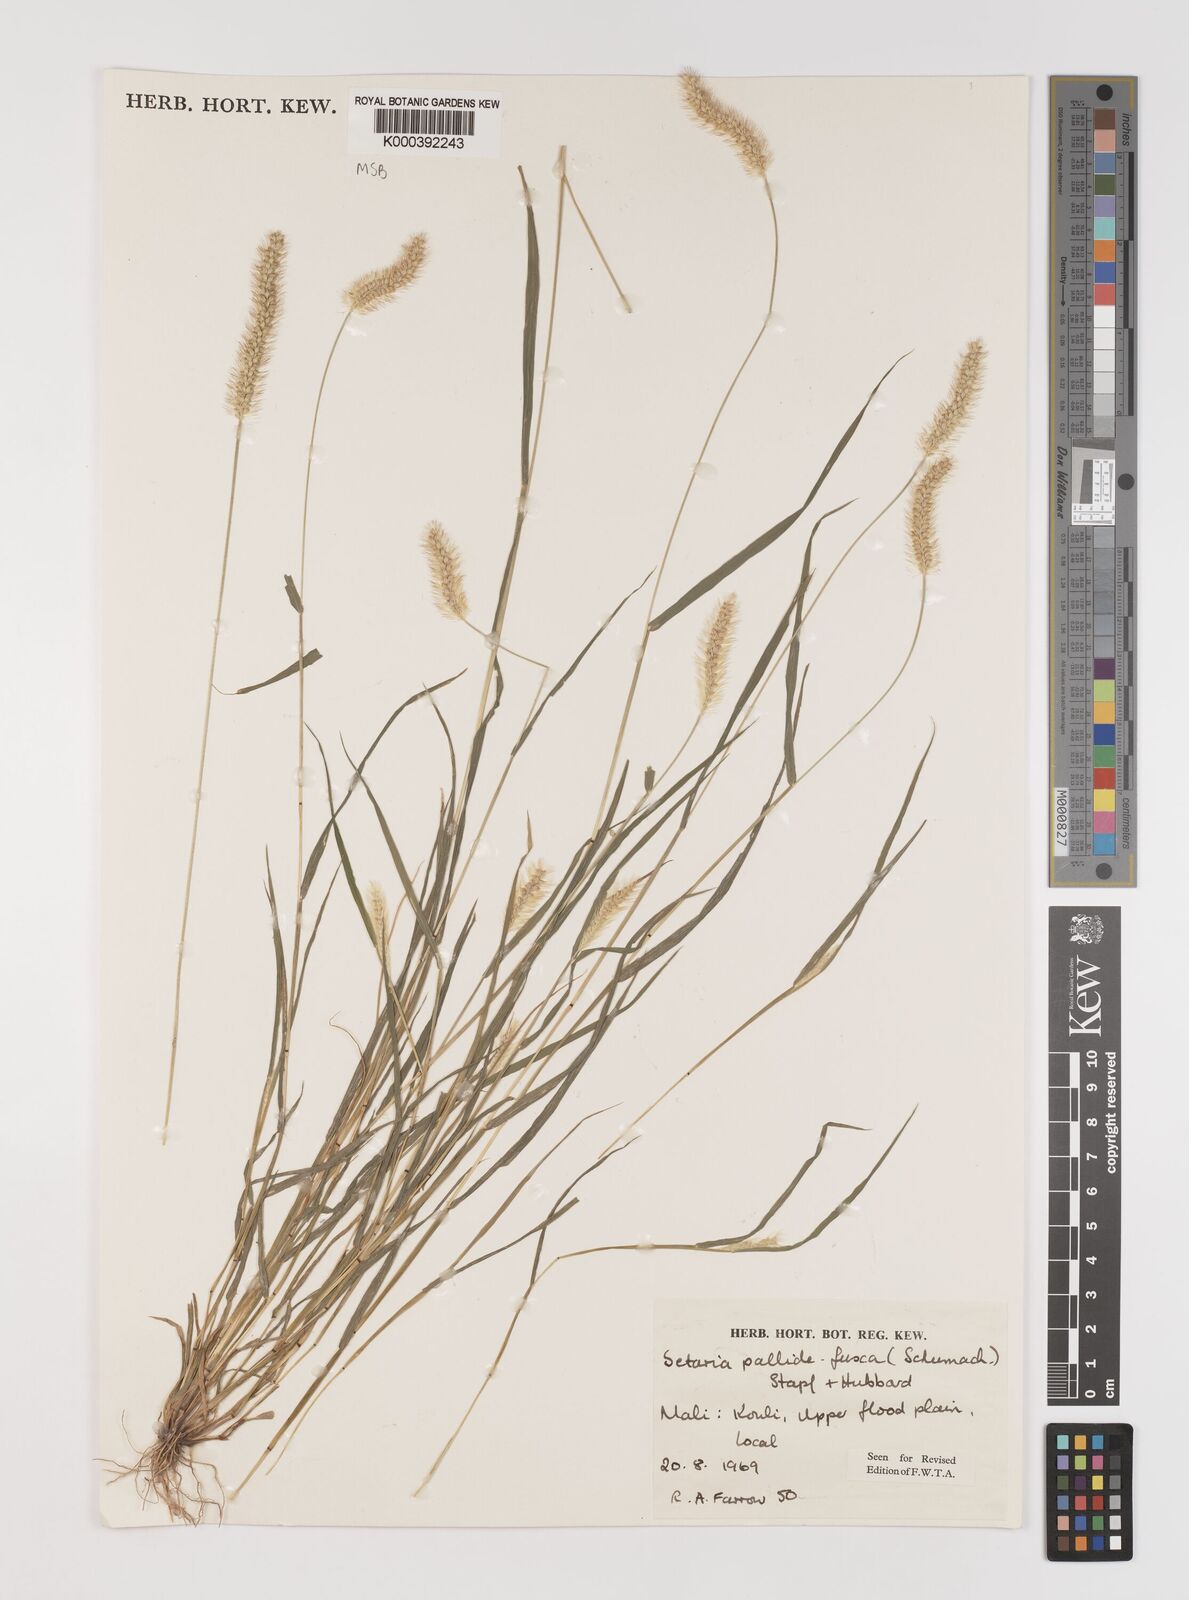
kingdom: Plantae
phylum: Tracheophyta
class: Liliopsida
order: Poales
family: Poaceae
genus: Setaria
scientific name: Setaria pumila
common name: Yellow bristle-grass
